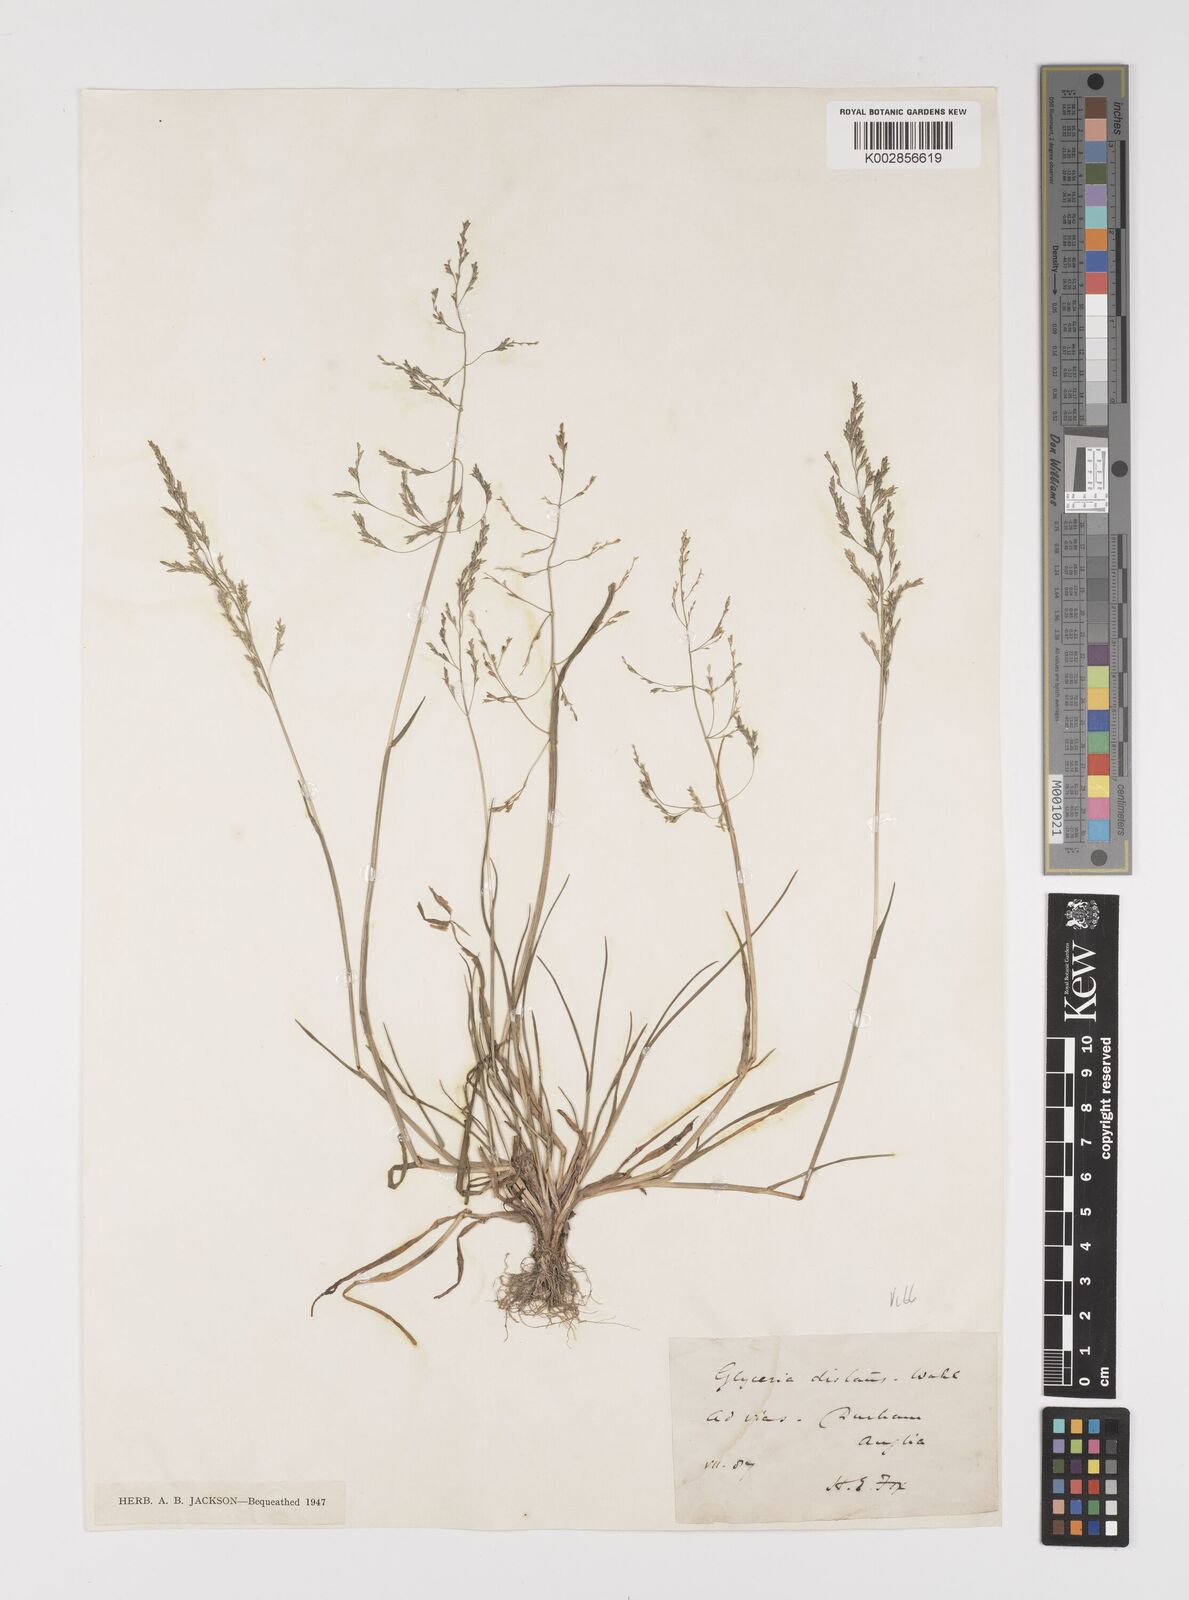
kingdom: Plantae
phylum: Tracheophyta
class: Liliopsida
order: Poales
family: Poaceae
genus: Puccinellia
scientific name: Puccinellia distans
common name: Weeping alkaligrass
